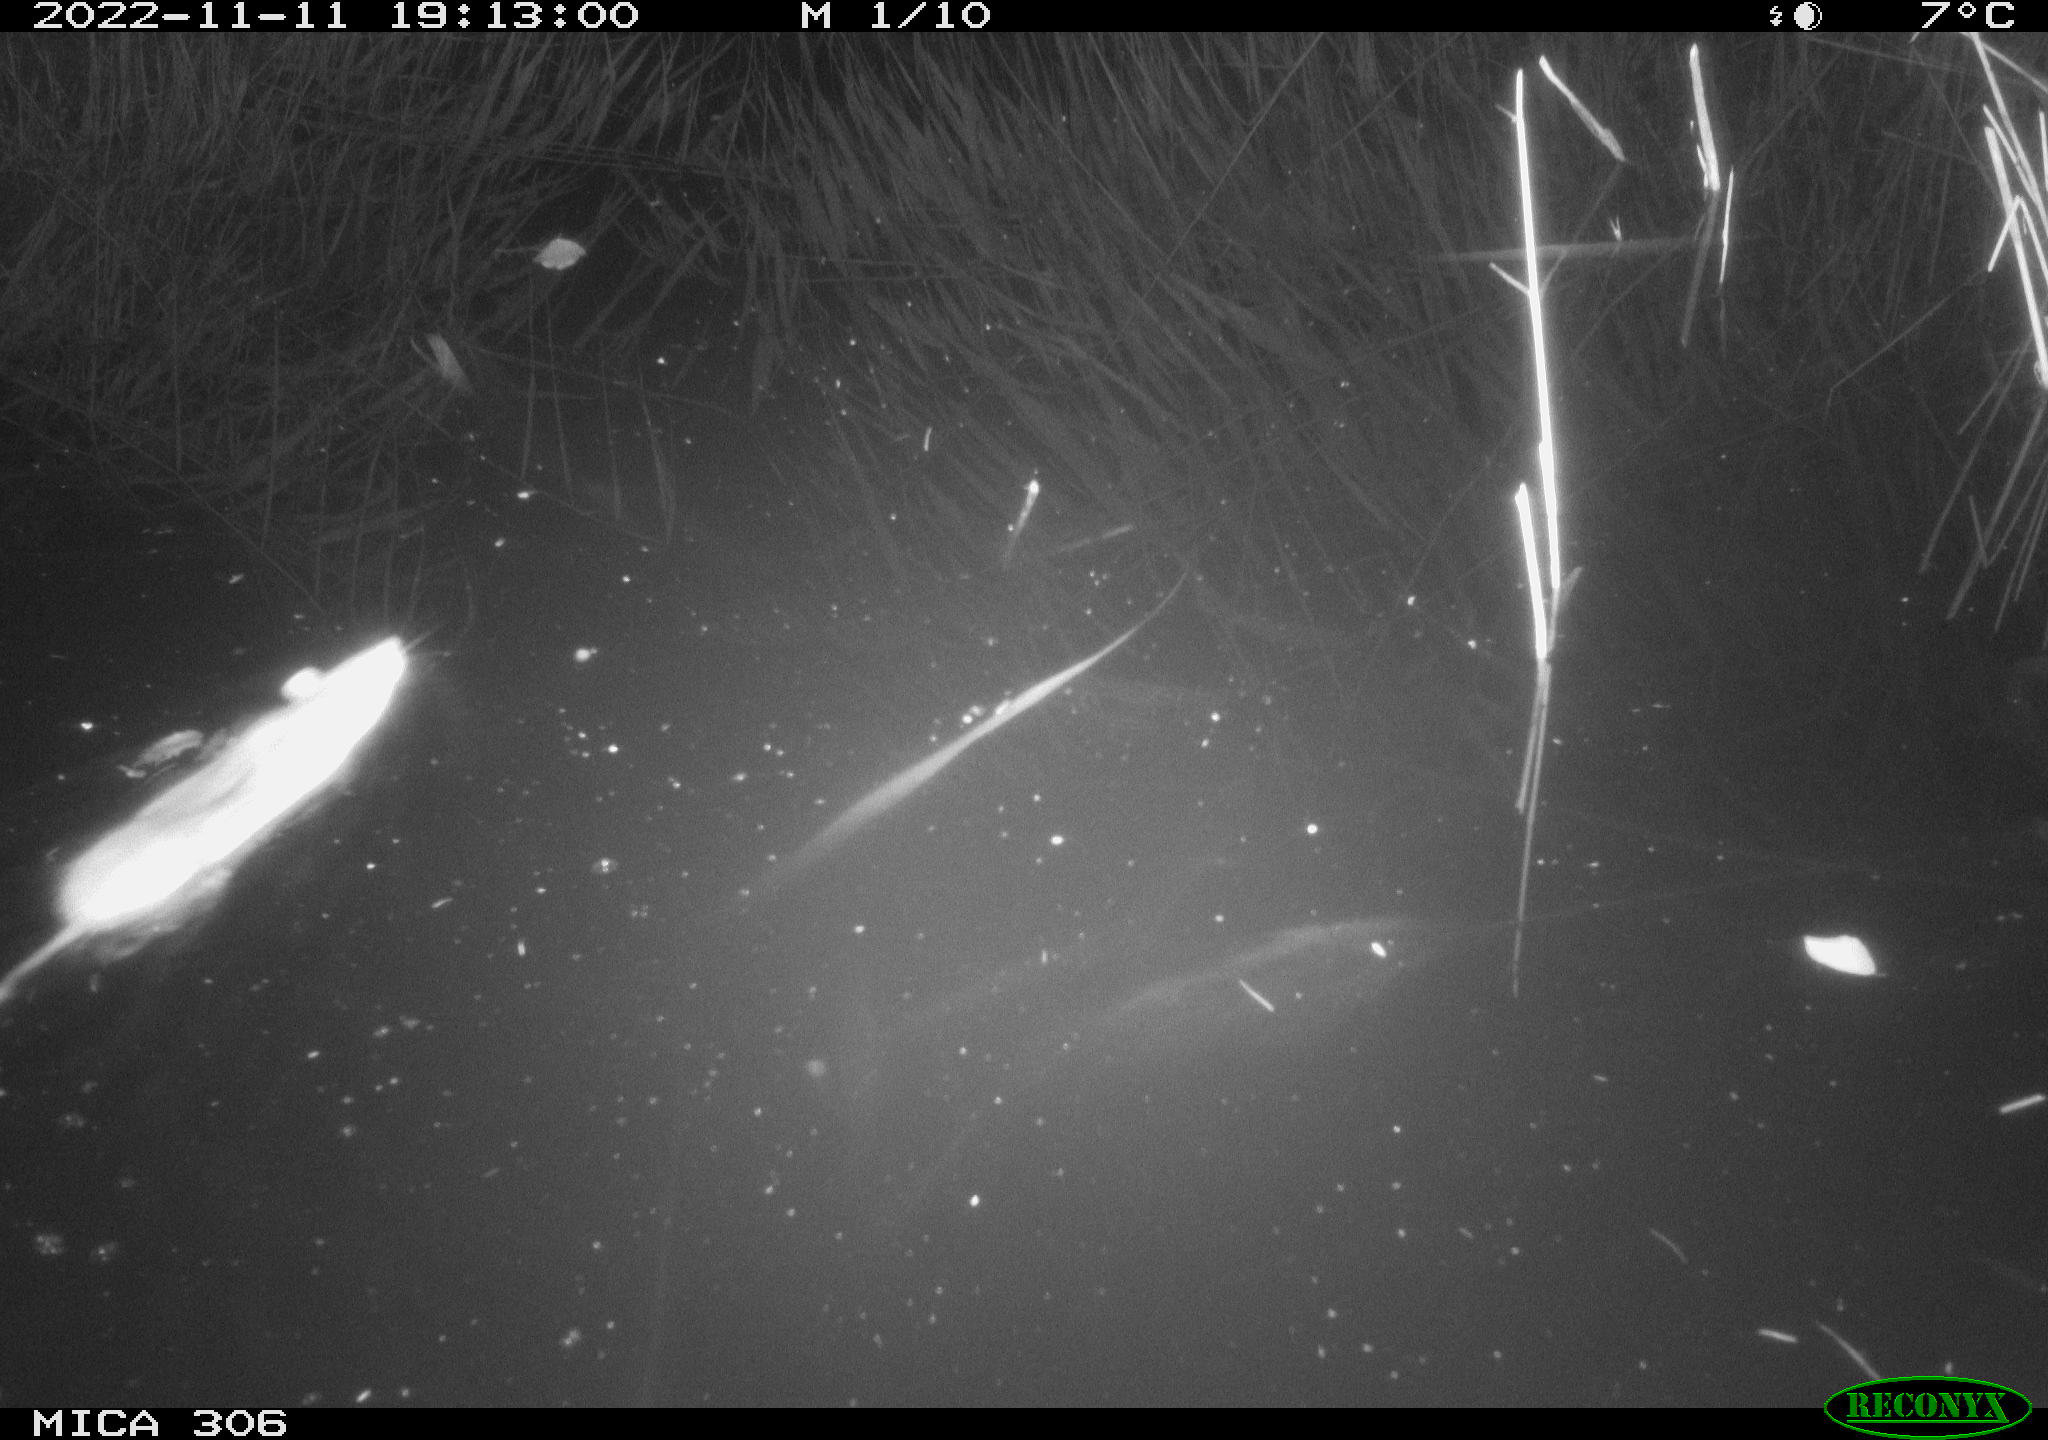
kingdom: Animalia
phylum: Chordata
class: Mammalia
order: Rodentia
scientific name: Rodentia
